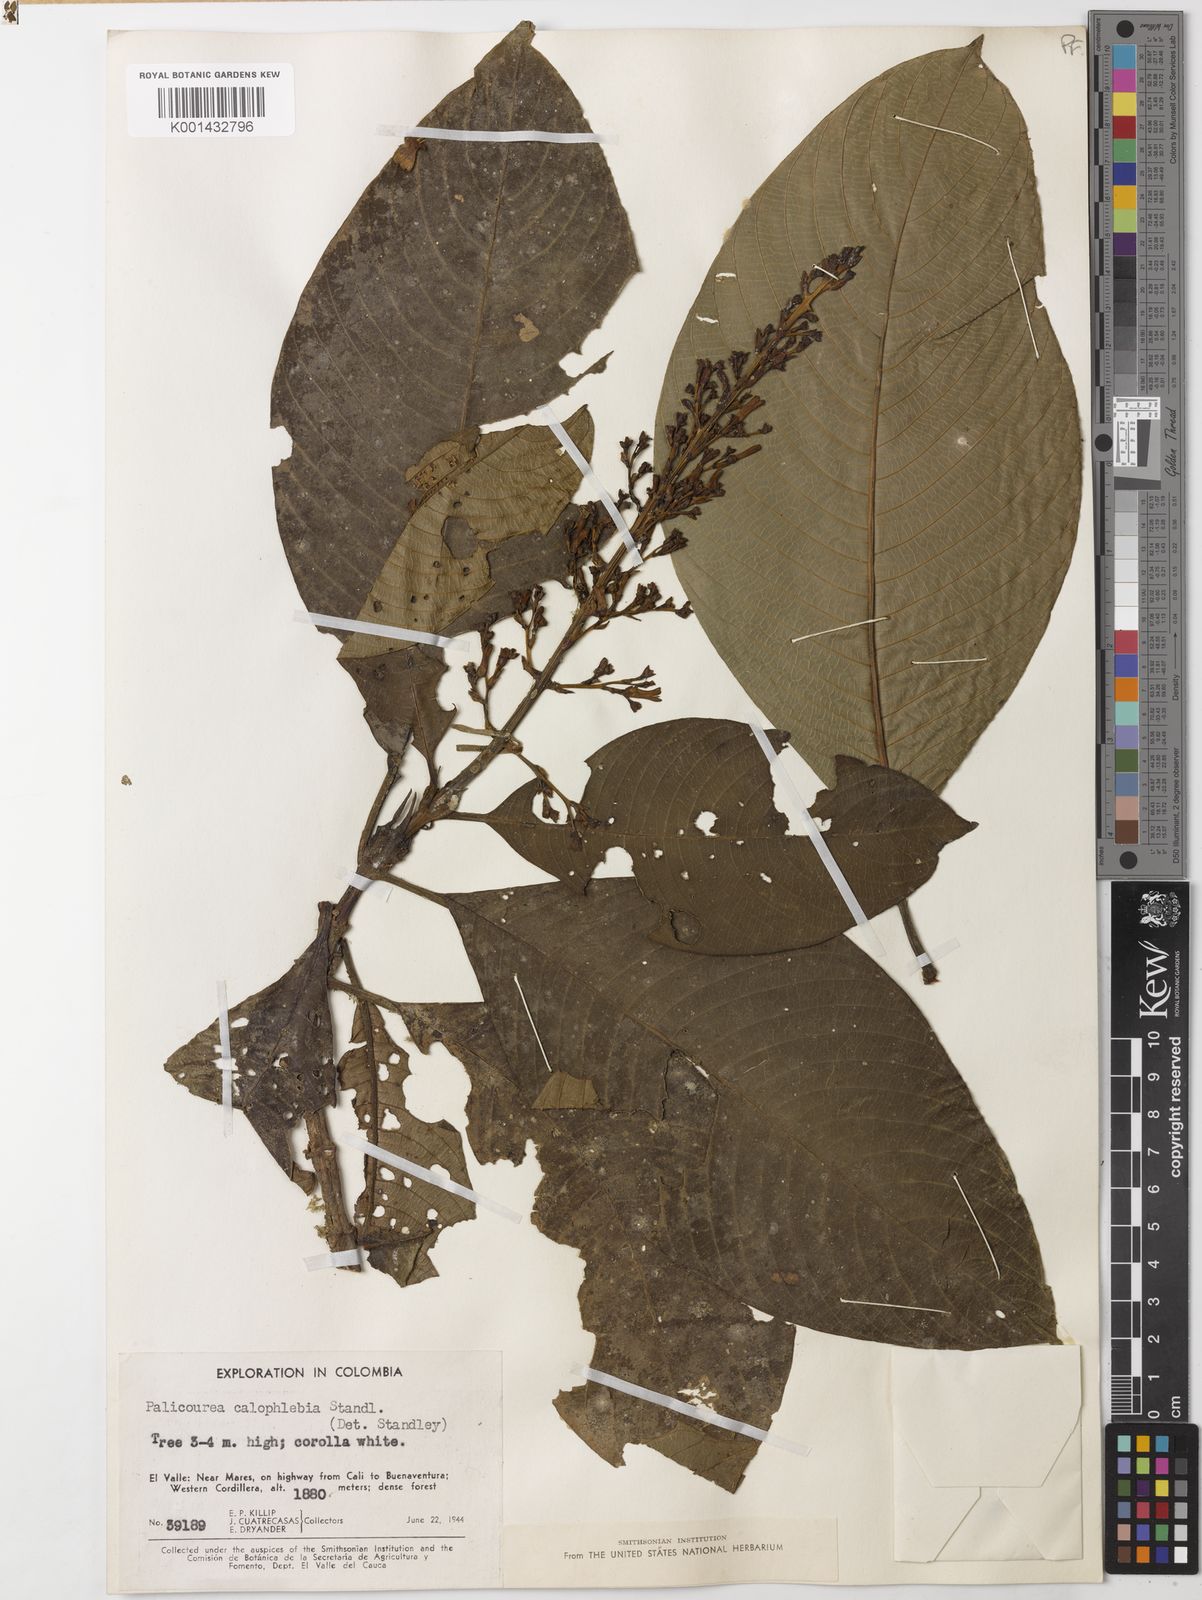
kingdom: Plantae
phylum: Tracheophyta
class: Magnoliopsida
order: Gentianales
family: Rubiaceae
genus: Palicourea
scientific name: Palicourea calophlebia
